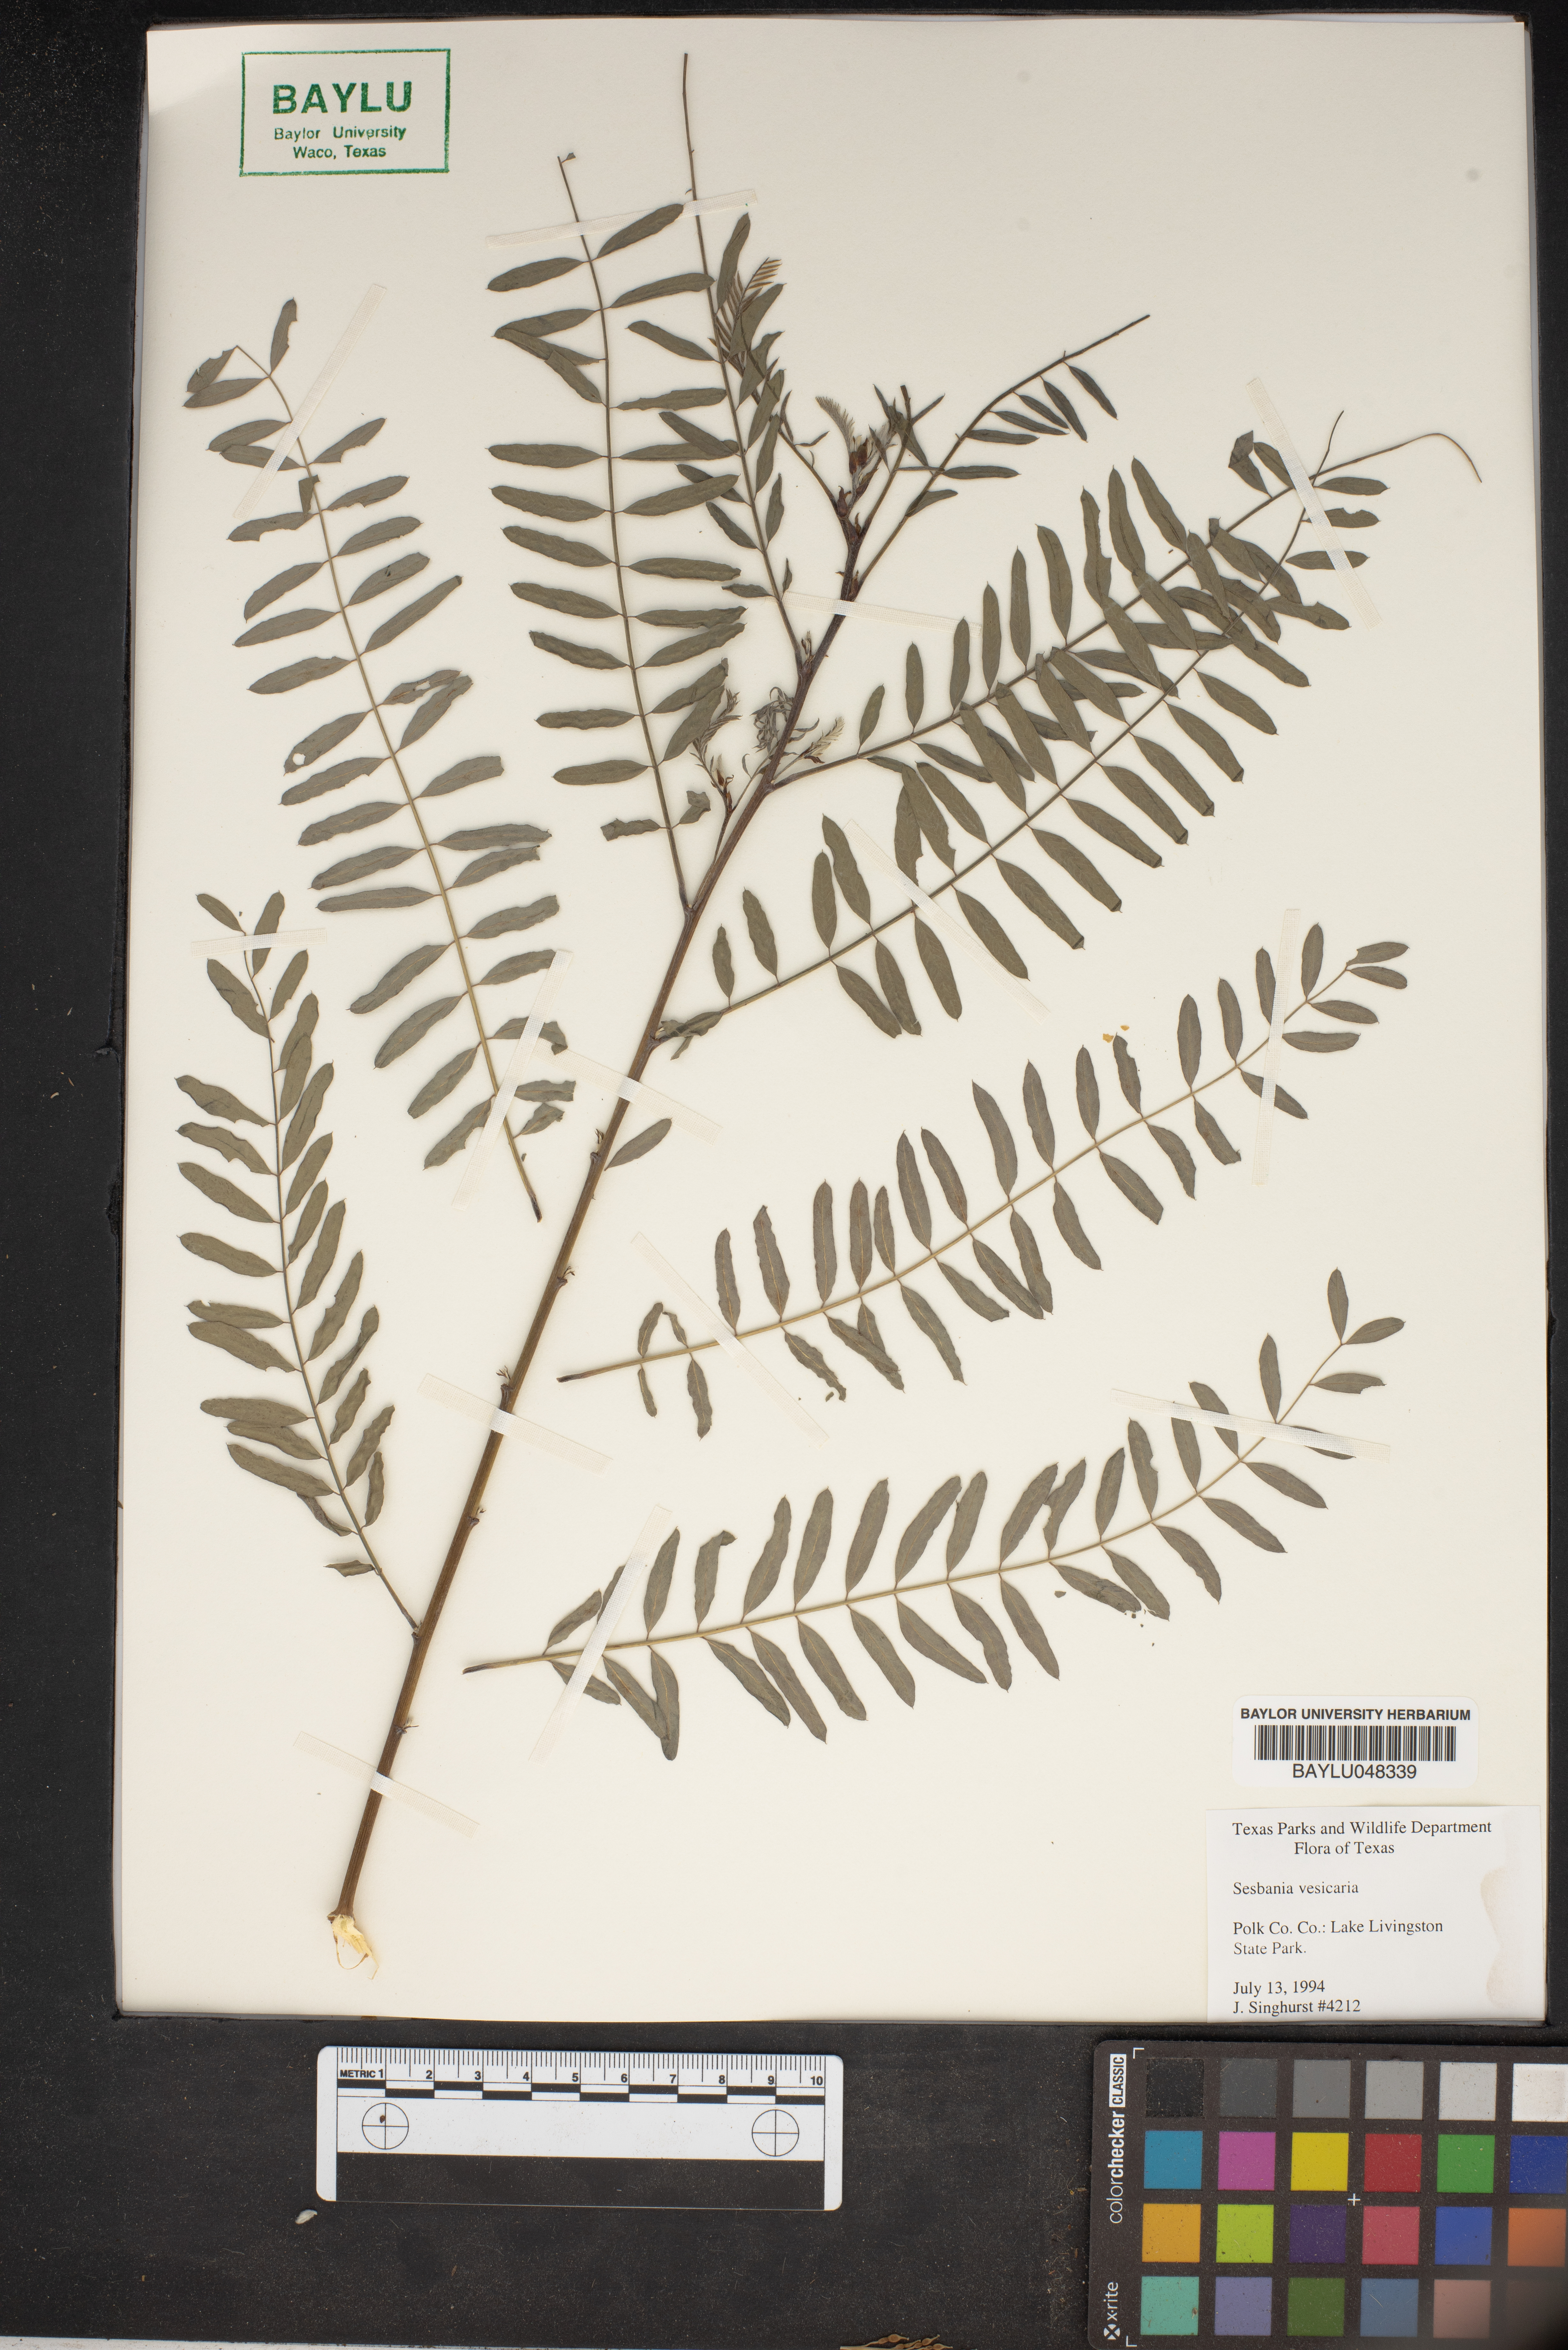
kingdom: Plantae
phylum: Tracheophyta
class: Magnoliopsida
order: Fabales
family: Fabaceae
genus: Sesbania
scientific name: Sesbania vesicaria
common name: Bagpod
